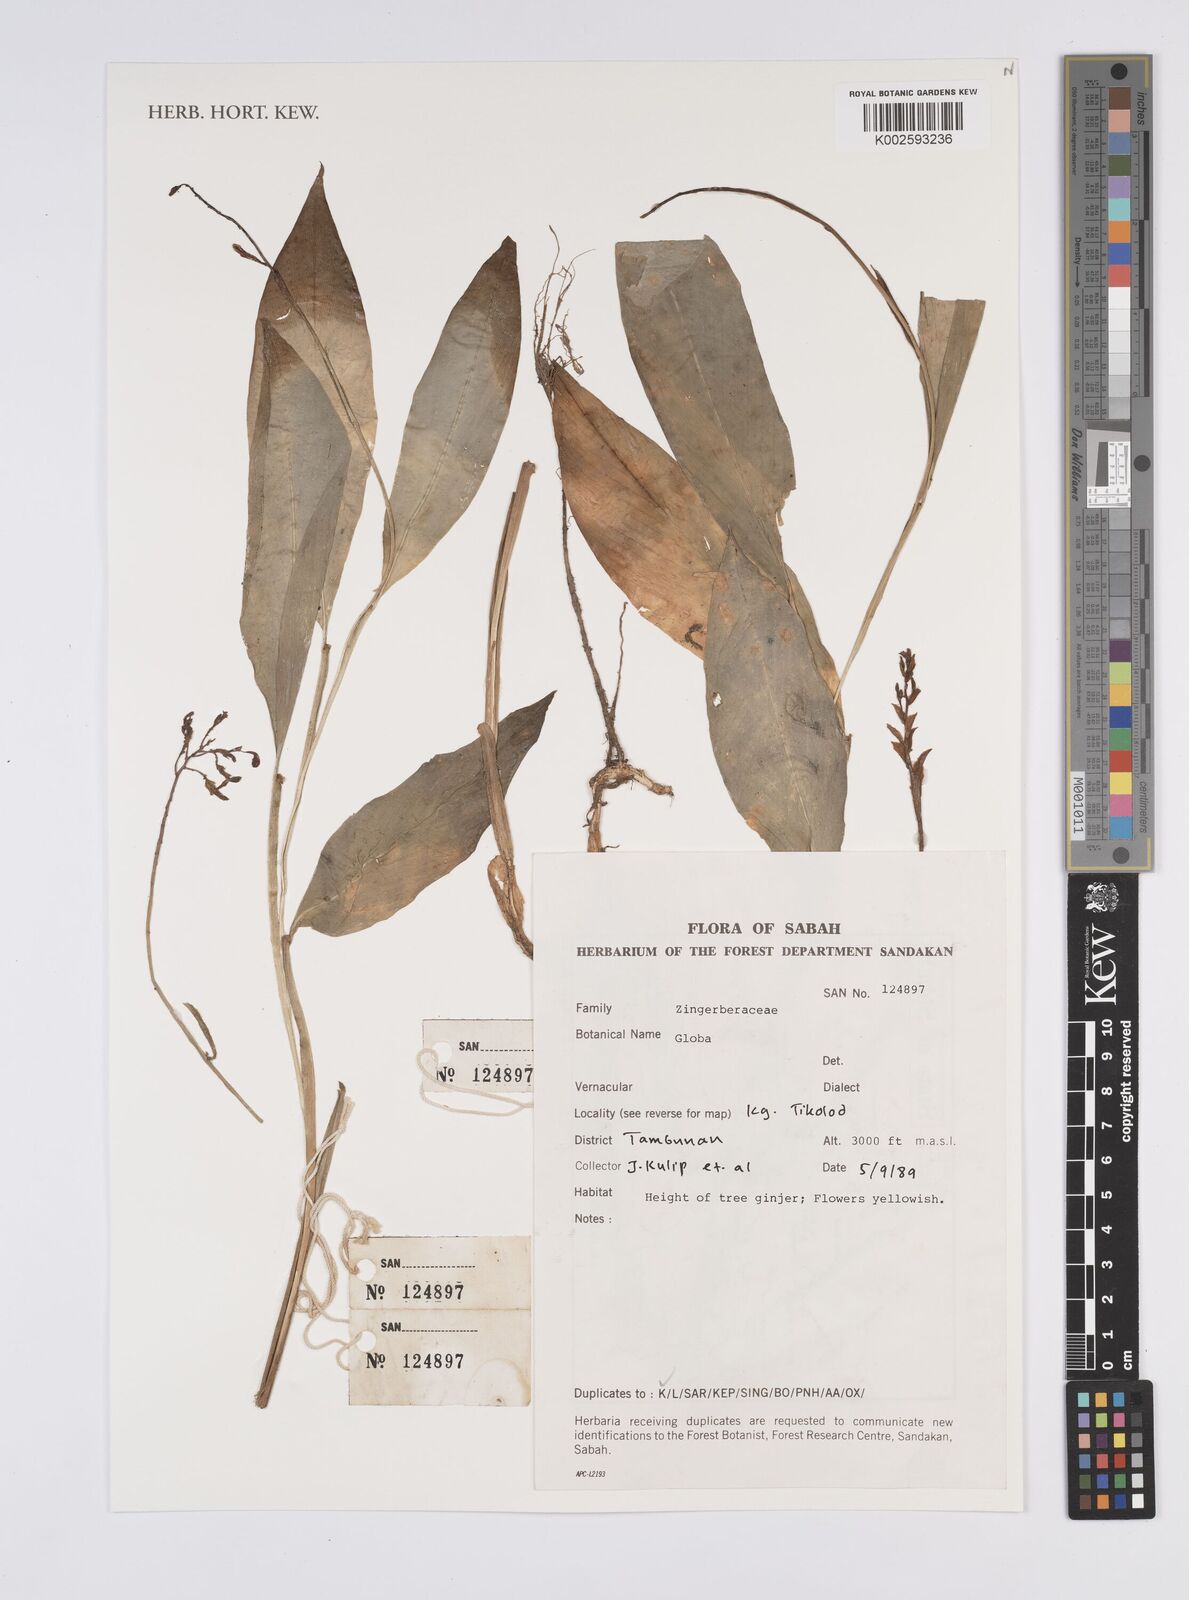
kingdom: Plantae
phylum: Tracheophyta
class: Liliopsida
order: Zingiberales
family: Zingiberaceae
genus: Globba
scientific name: Globba
